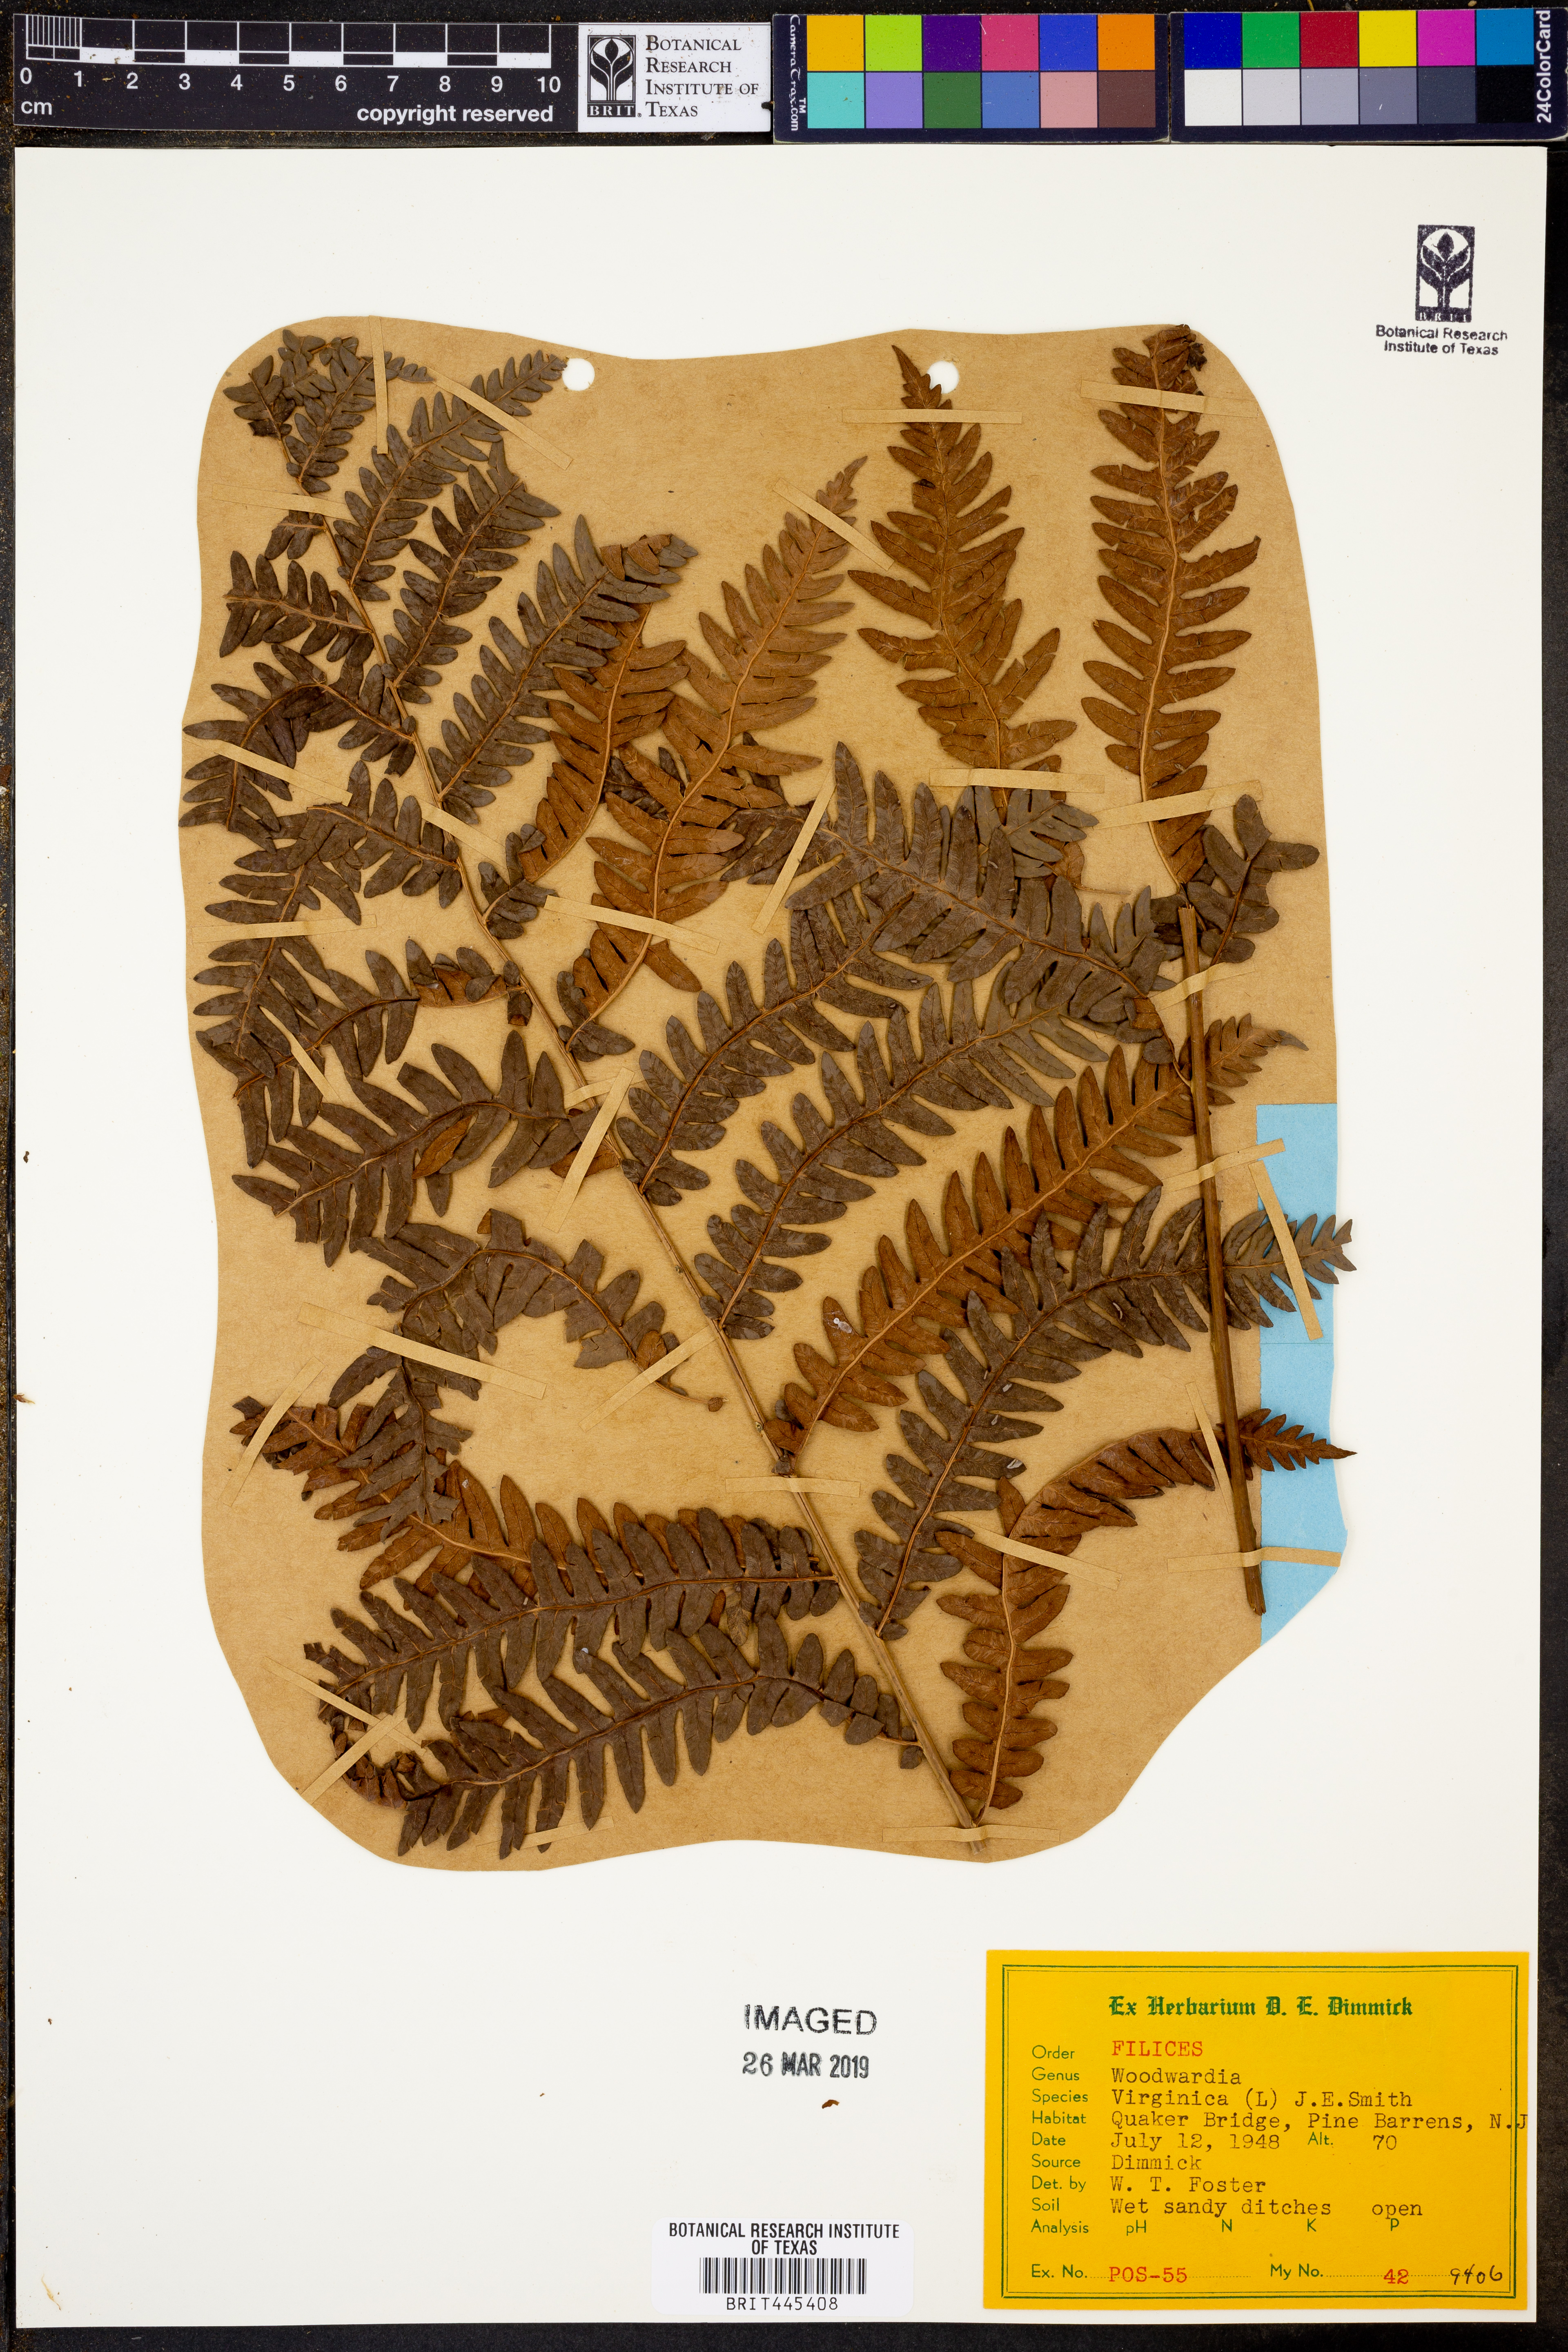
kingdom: Plantae
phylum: Tracheophyta
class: Polypodiopsida
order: Polypodiales
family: Blechnaceae
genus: Anchistea
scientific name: Anchistea virginica
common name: Virginia chain fern
